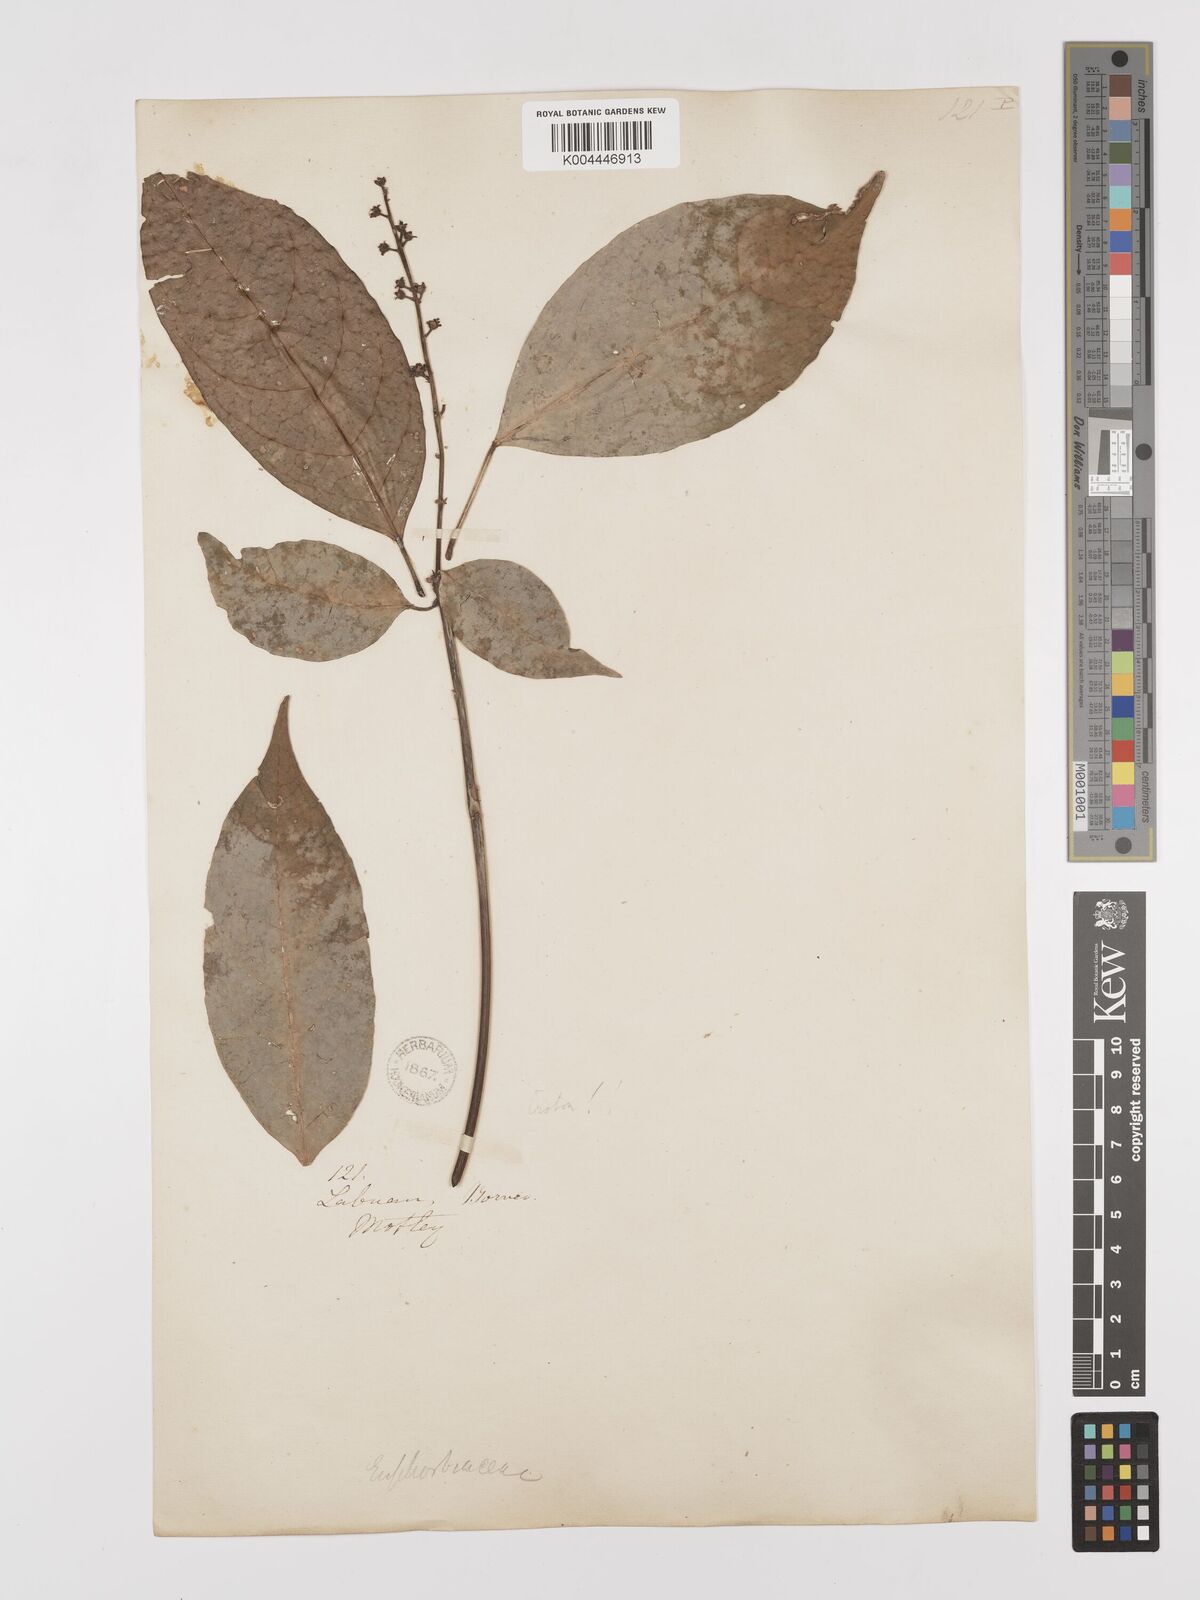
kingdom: Plantae
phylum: Tracheophyta
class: Magnoliopsida
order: Malpighiales
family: Euphorbiaceae
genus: Croton
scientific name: Croton oblongus
